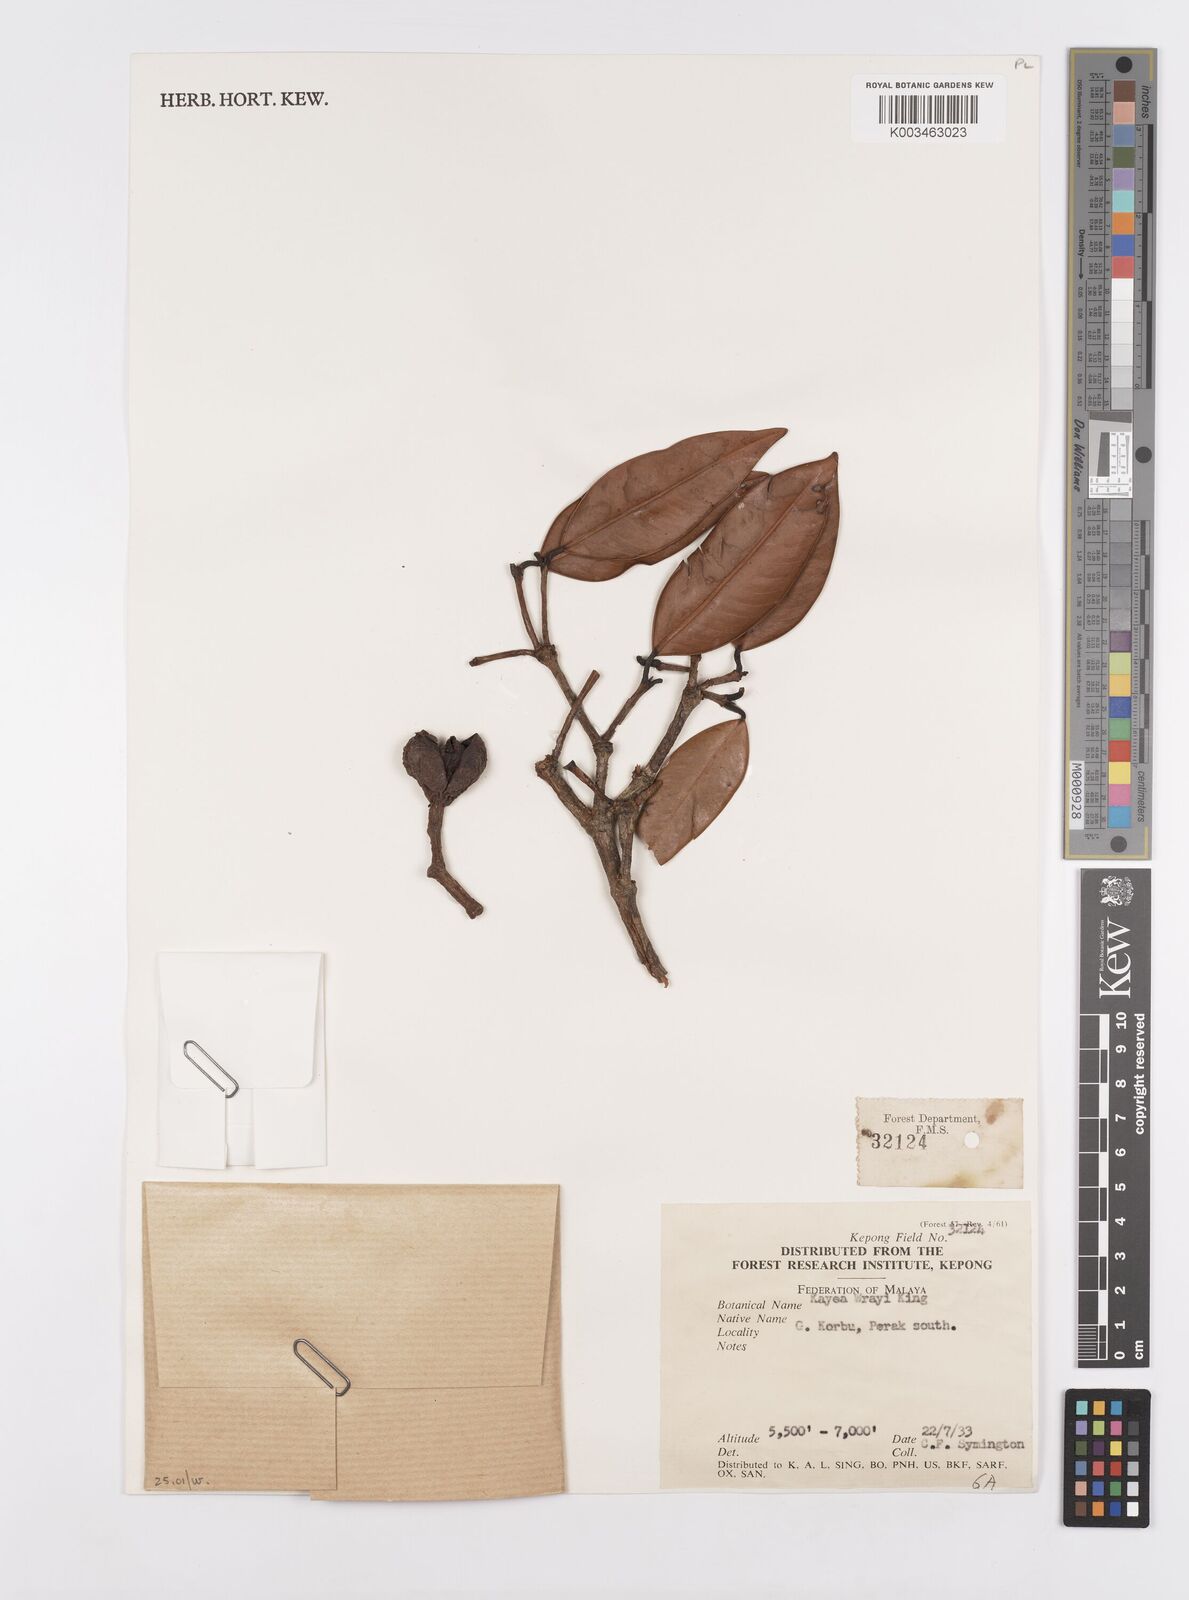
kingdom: Plantae
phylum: Tracheophyta
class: Magnoliopsida
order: Malpighiales
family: Calophyllaceae
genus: Kayea
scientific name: Kayea wrayi
